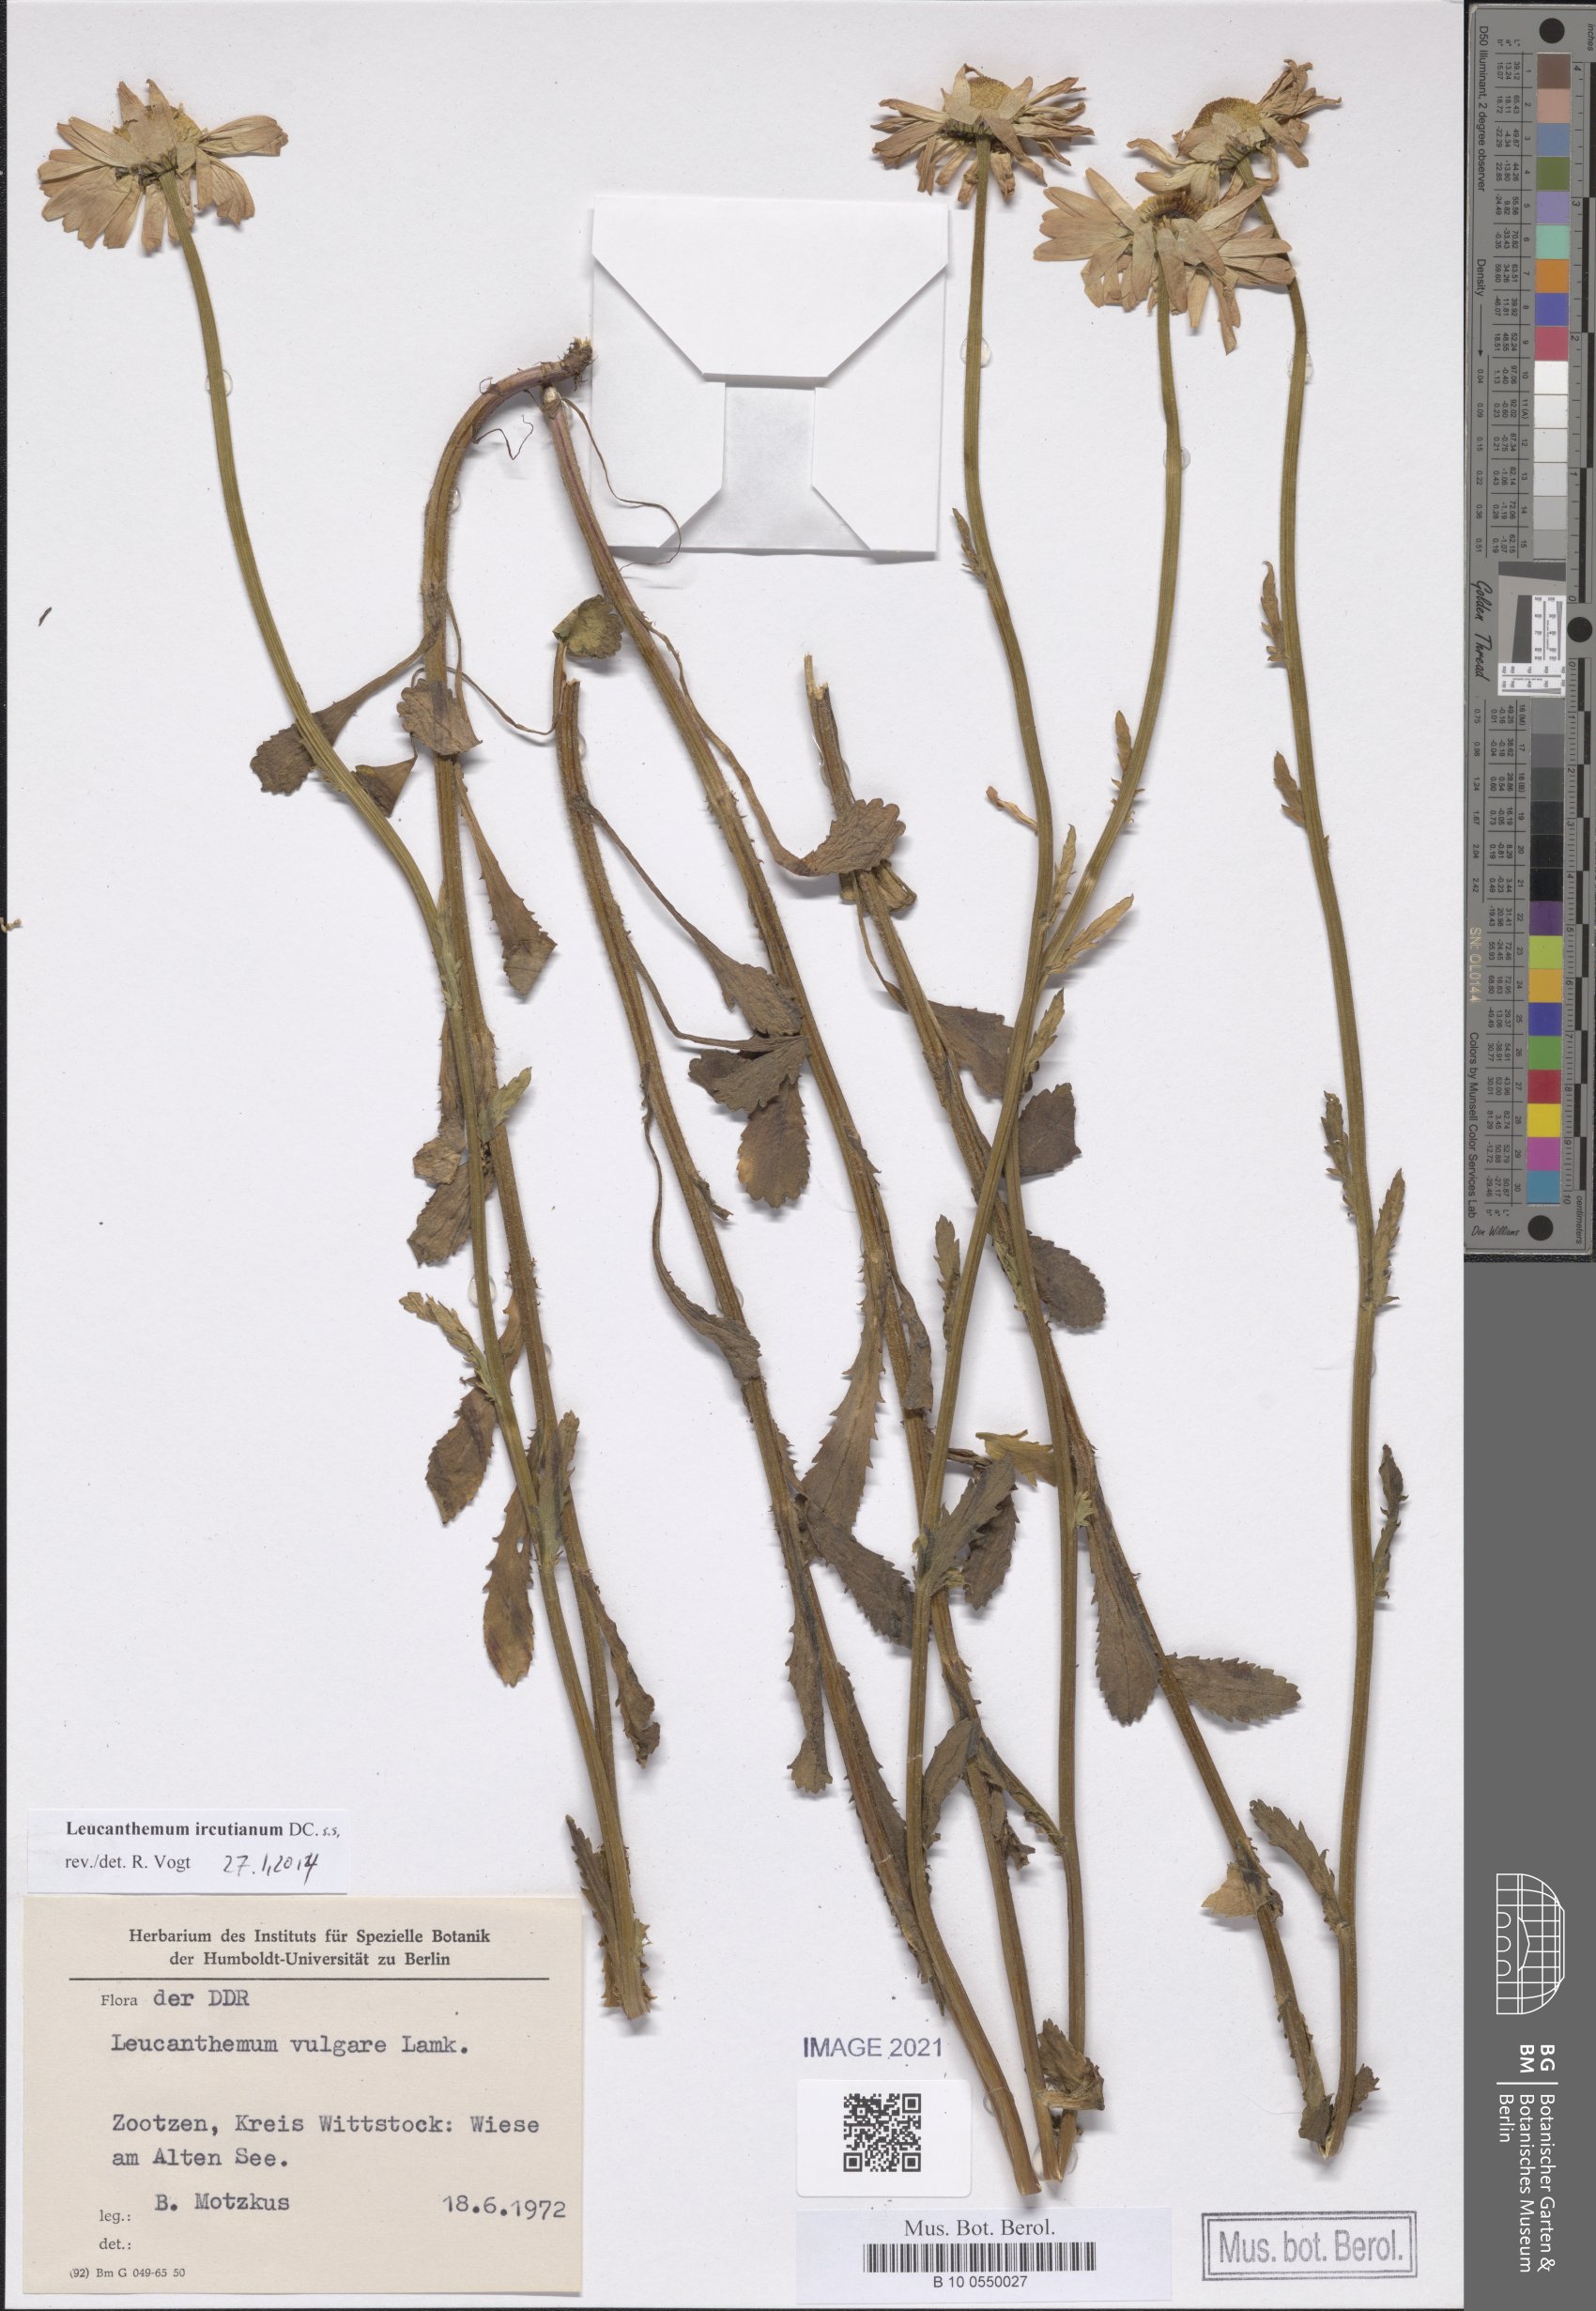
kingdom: Plantae
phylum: Tracheophyta
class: Magnoliopsida
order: Asterales
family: Asteraceae
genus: Leucanthemum
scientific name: Leucanthemum ircutianum
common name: Daisy
